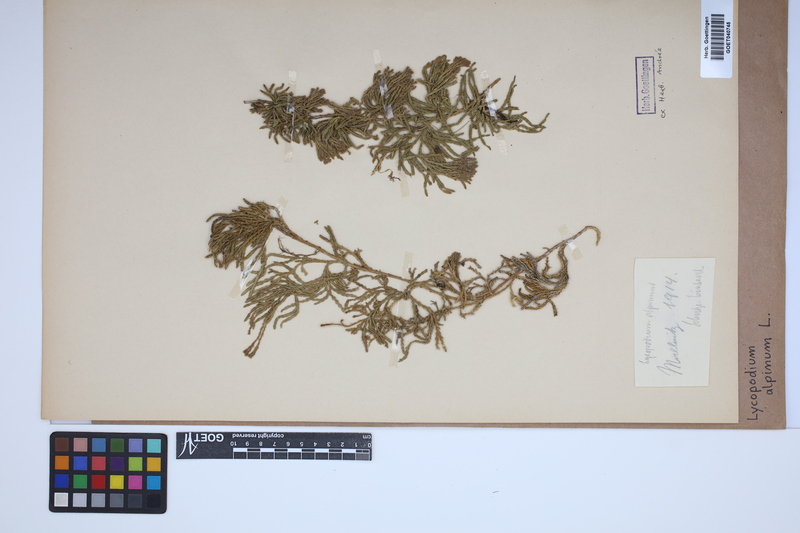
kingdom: Plantae
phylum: Tracheophyta
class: Lycopodiopsida
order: Lycopodiales
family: Lycopodiaceae
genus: Diphasiastrum
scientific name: Diphasiastrum alpinum
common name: Alpine clubmoss
